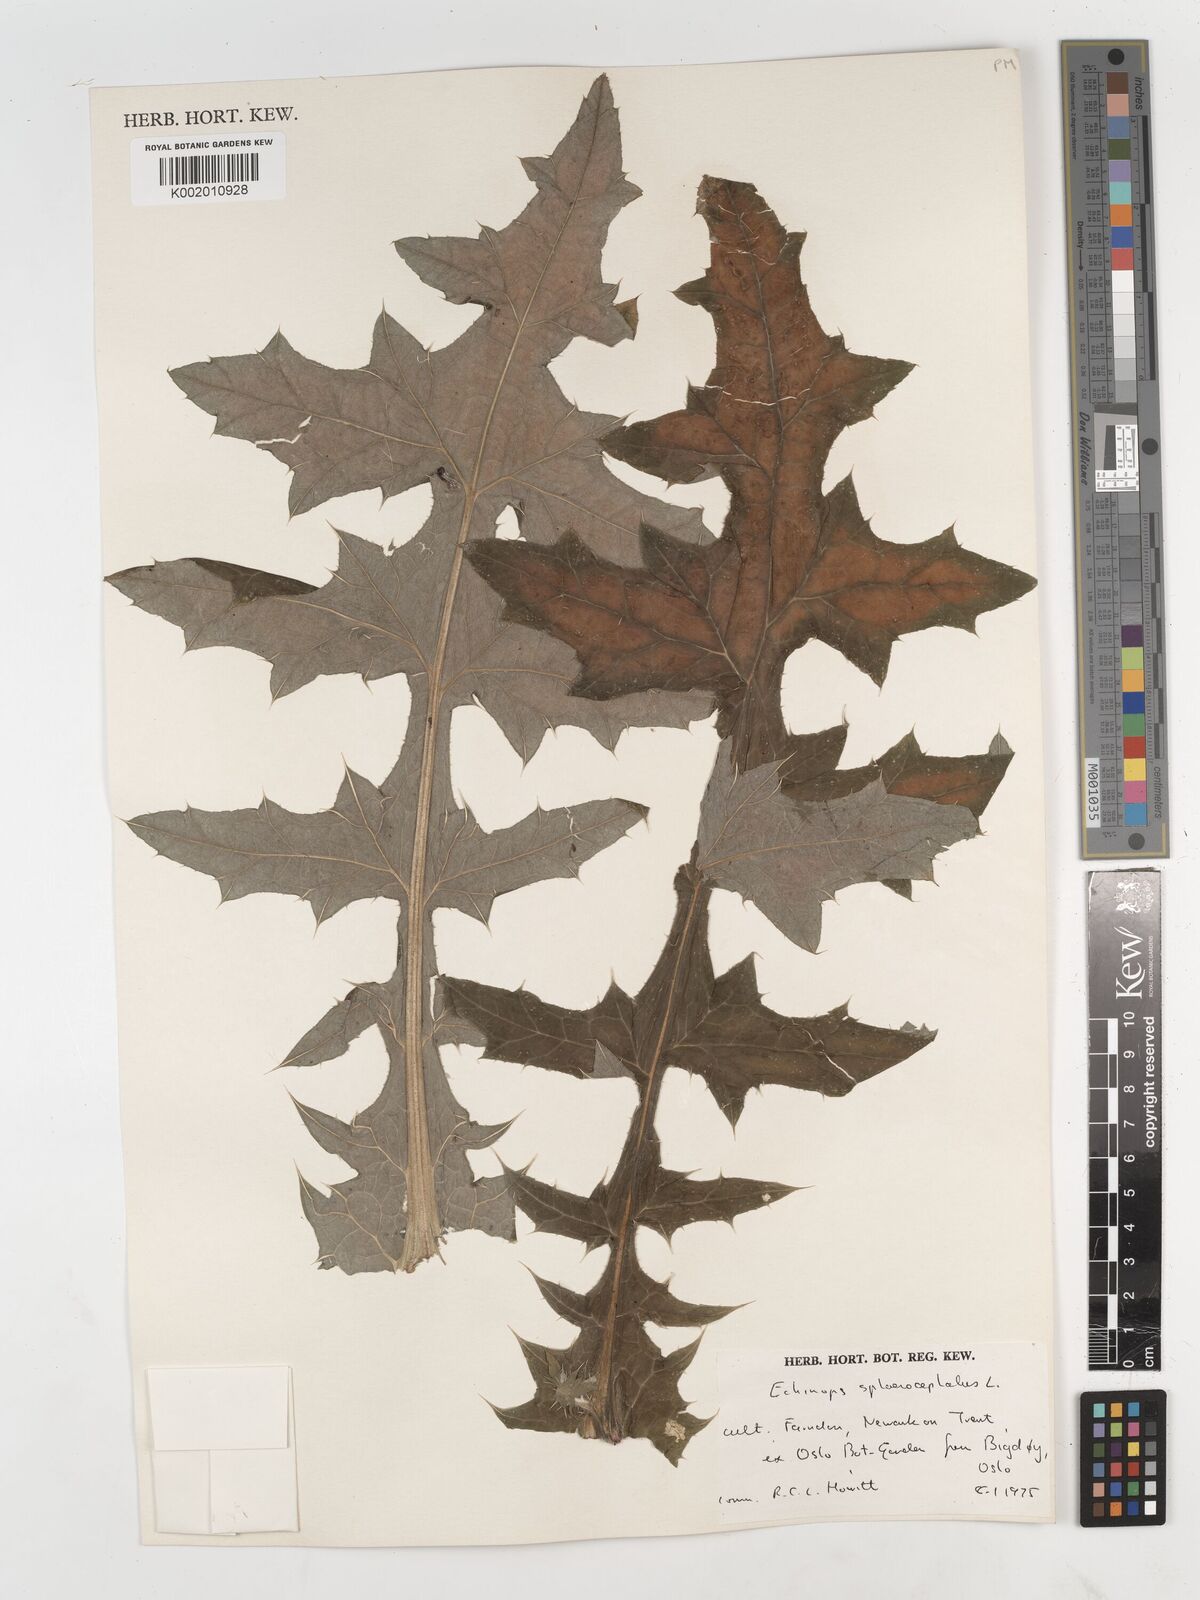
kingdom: Plantae
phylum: Tracheophyta
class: Magnoliopsida
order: Asterales
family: Asteraceae
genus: Echinops
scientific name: Echinops sphaerocephalus
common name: Glandular globe-thistle
